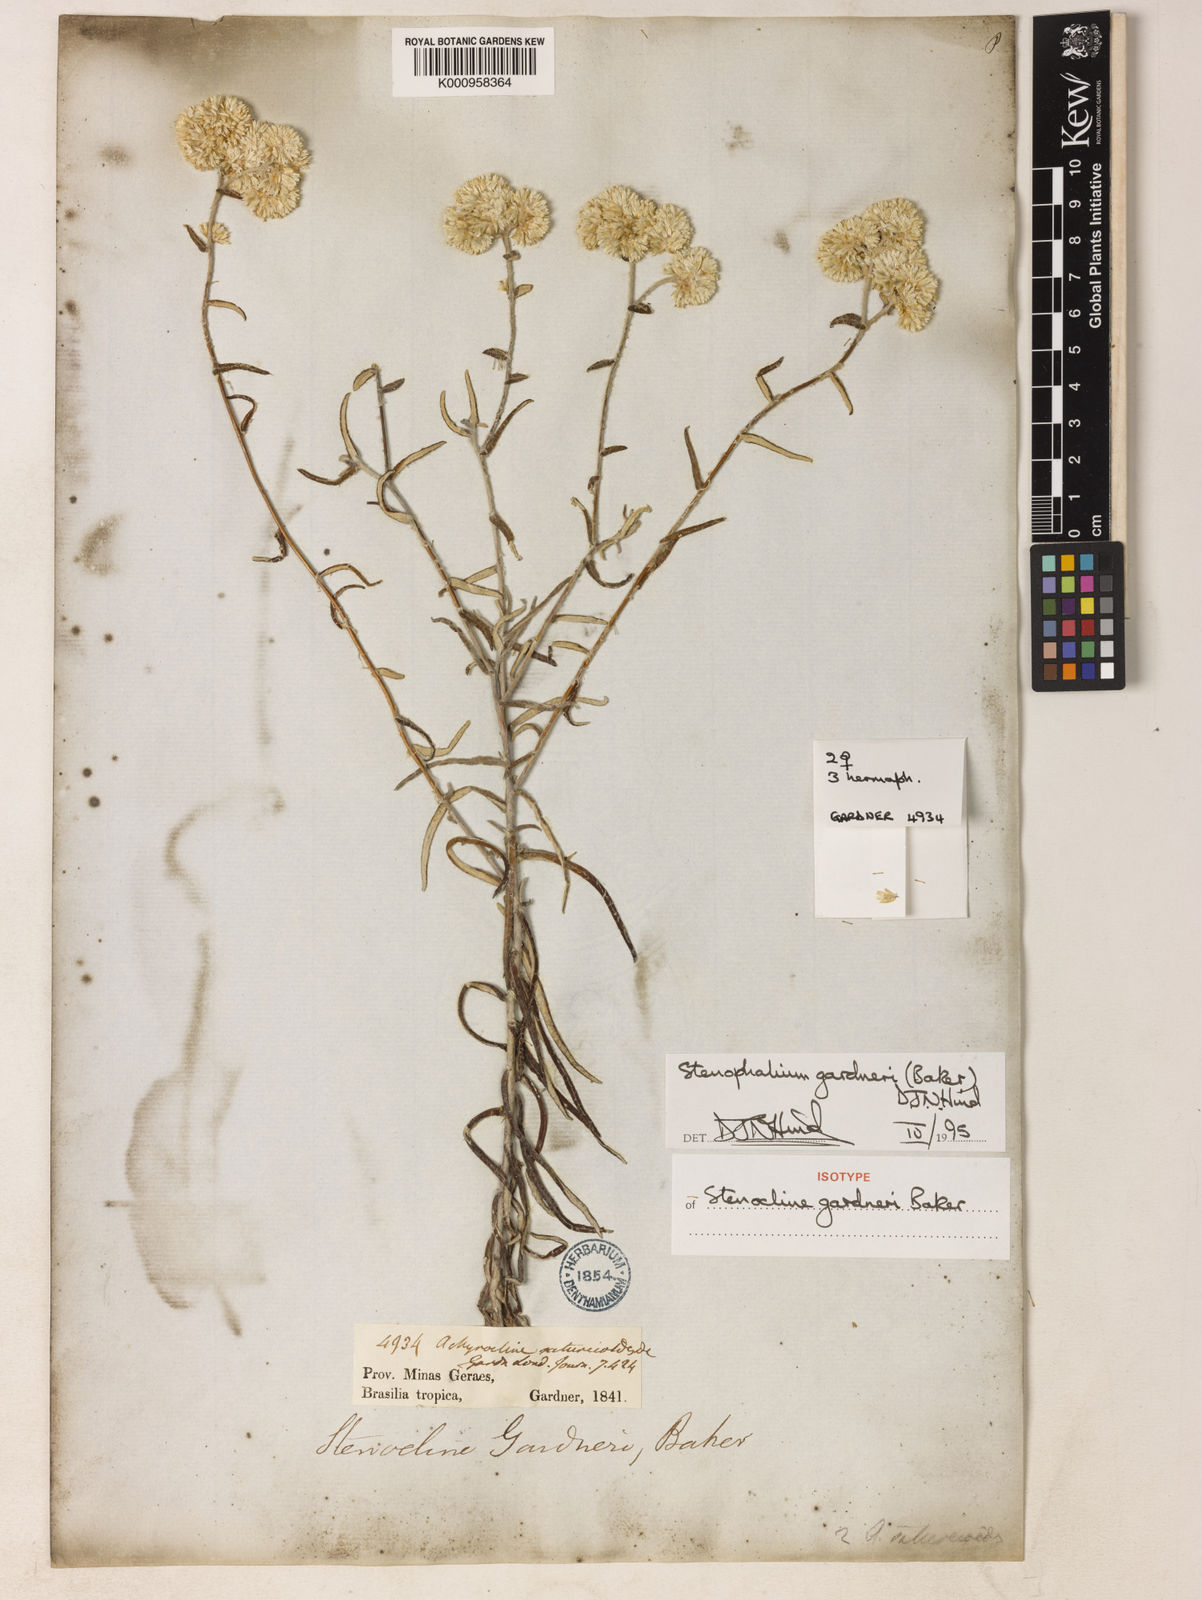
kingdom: Plantae
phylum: Tracheophyta
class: Magnoliopsida
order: Asterales
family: Asteraceae
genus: Achyrocline
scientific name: Achyrocline gardneri
